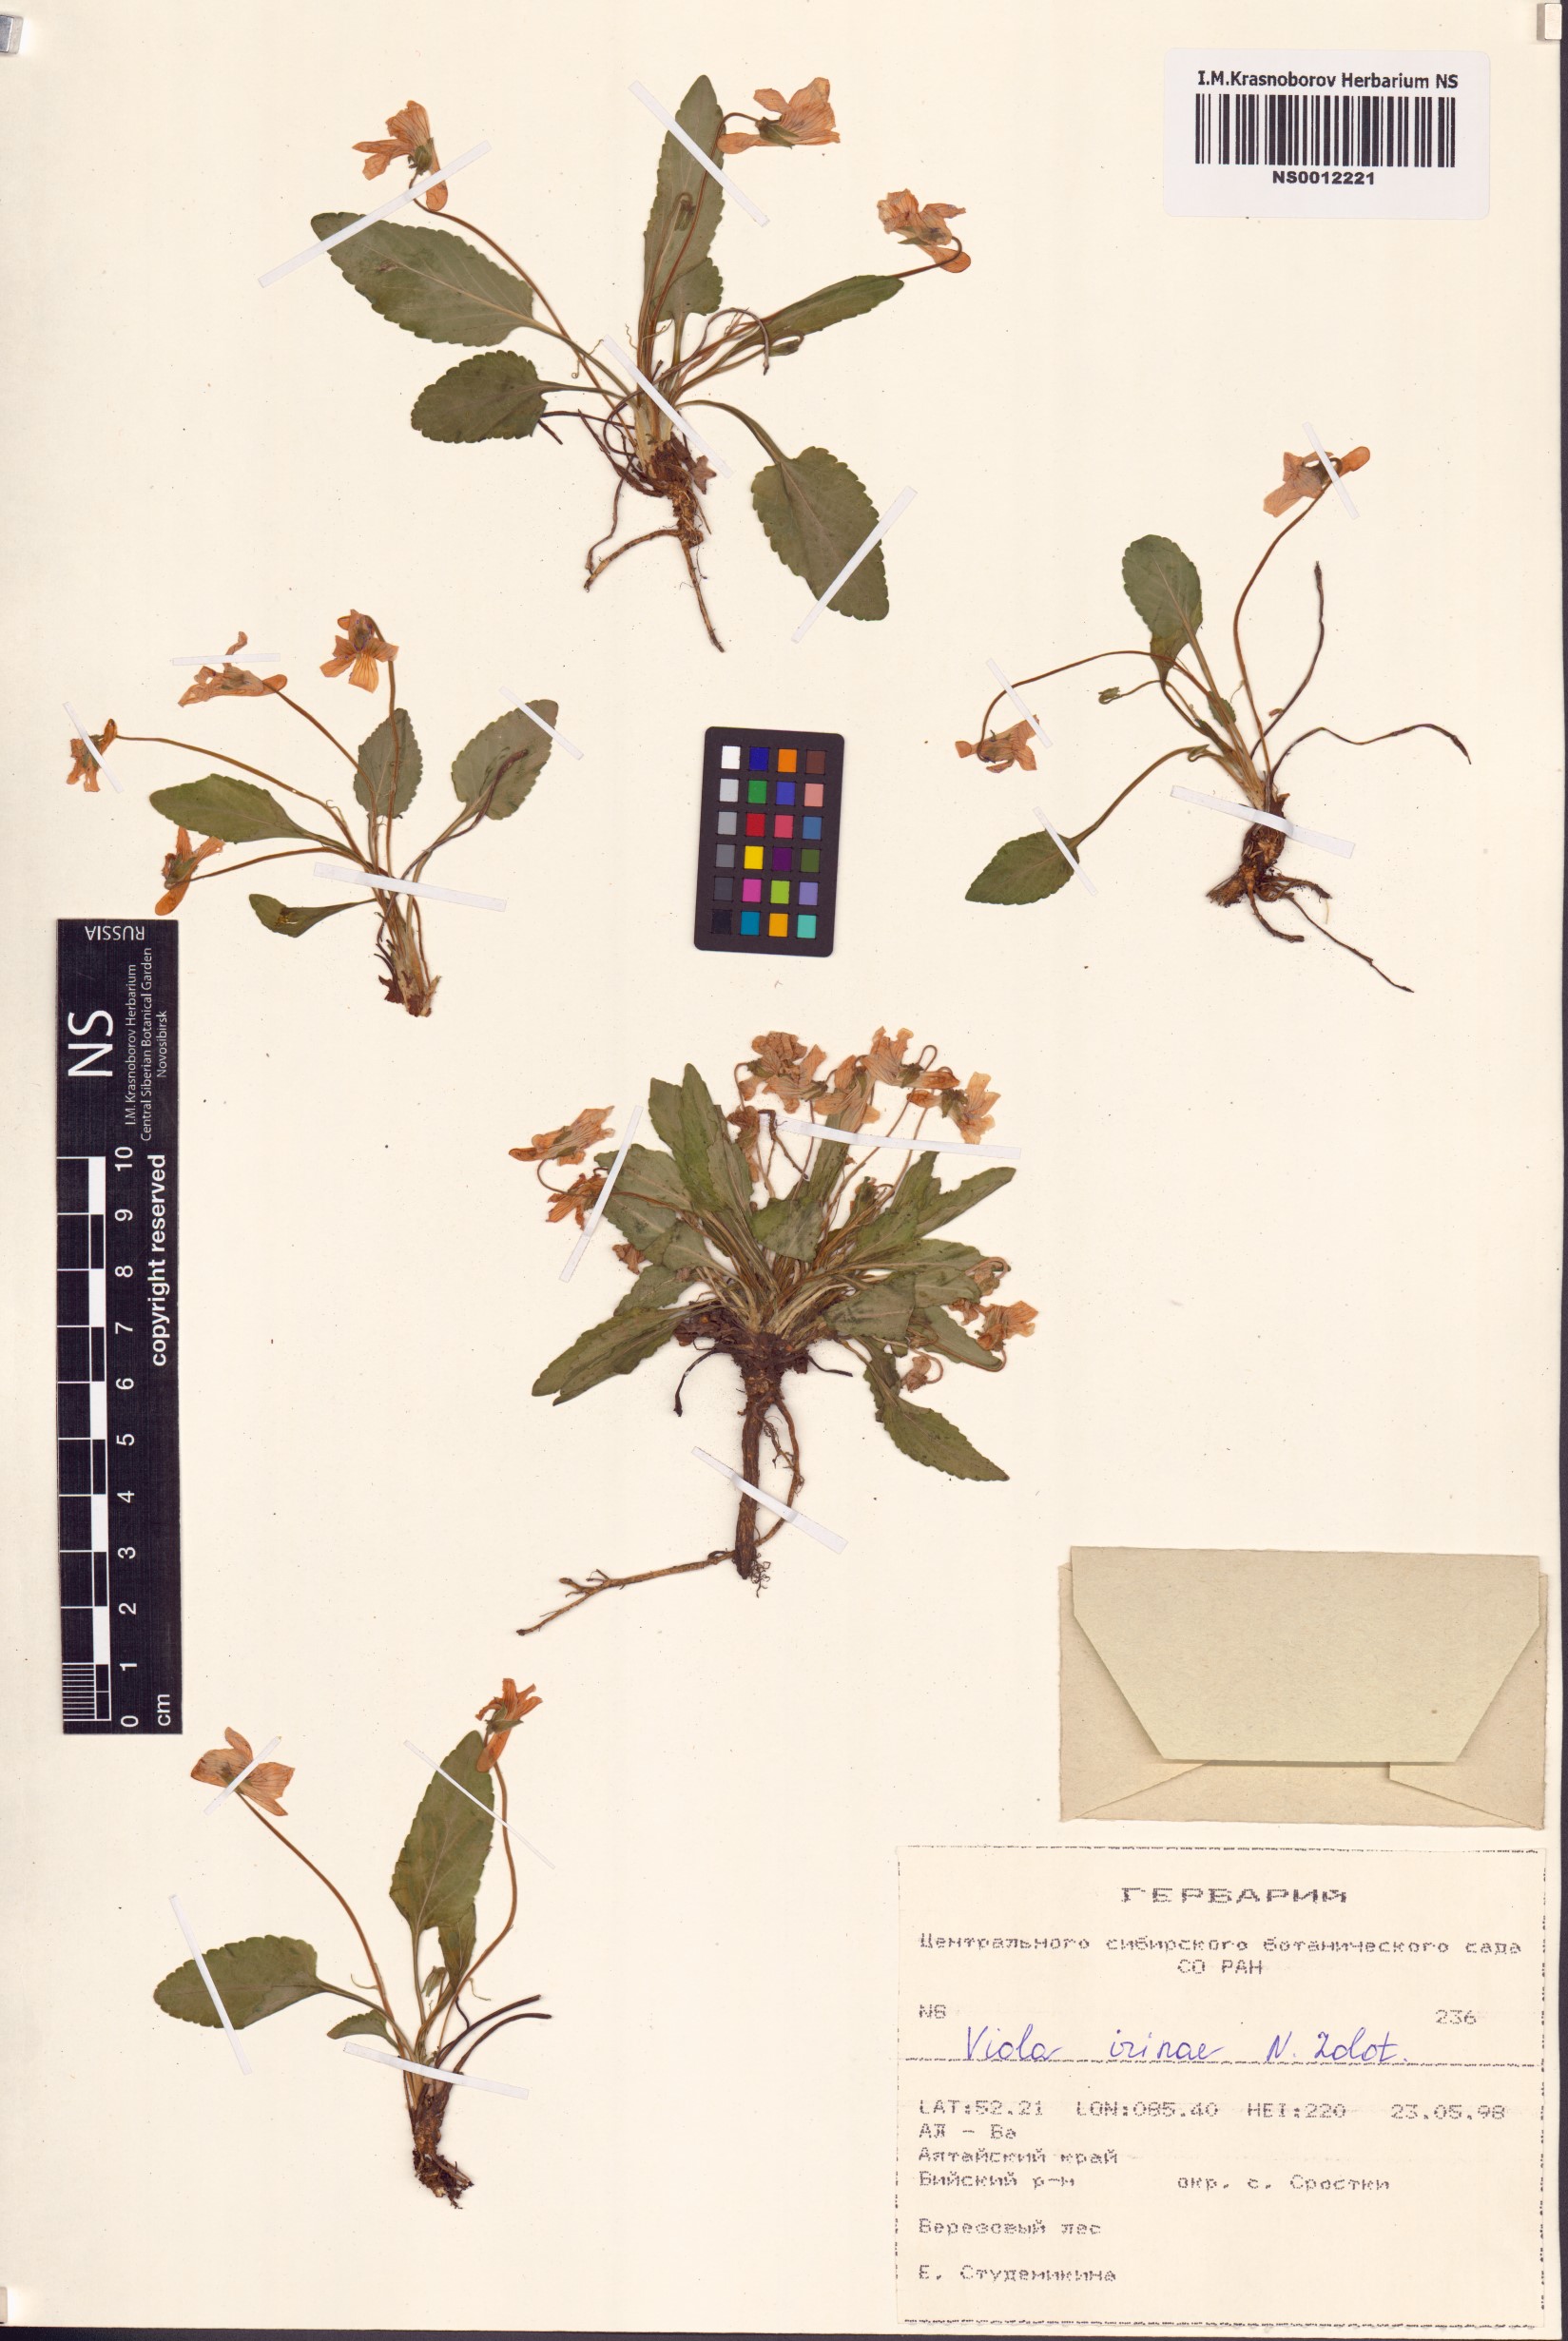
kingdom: Plantae
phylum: Tracheophyta
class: Magnoliopsida
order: Malpighiales
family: Violaceae
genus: Viola
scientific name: Viola prionantha
